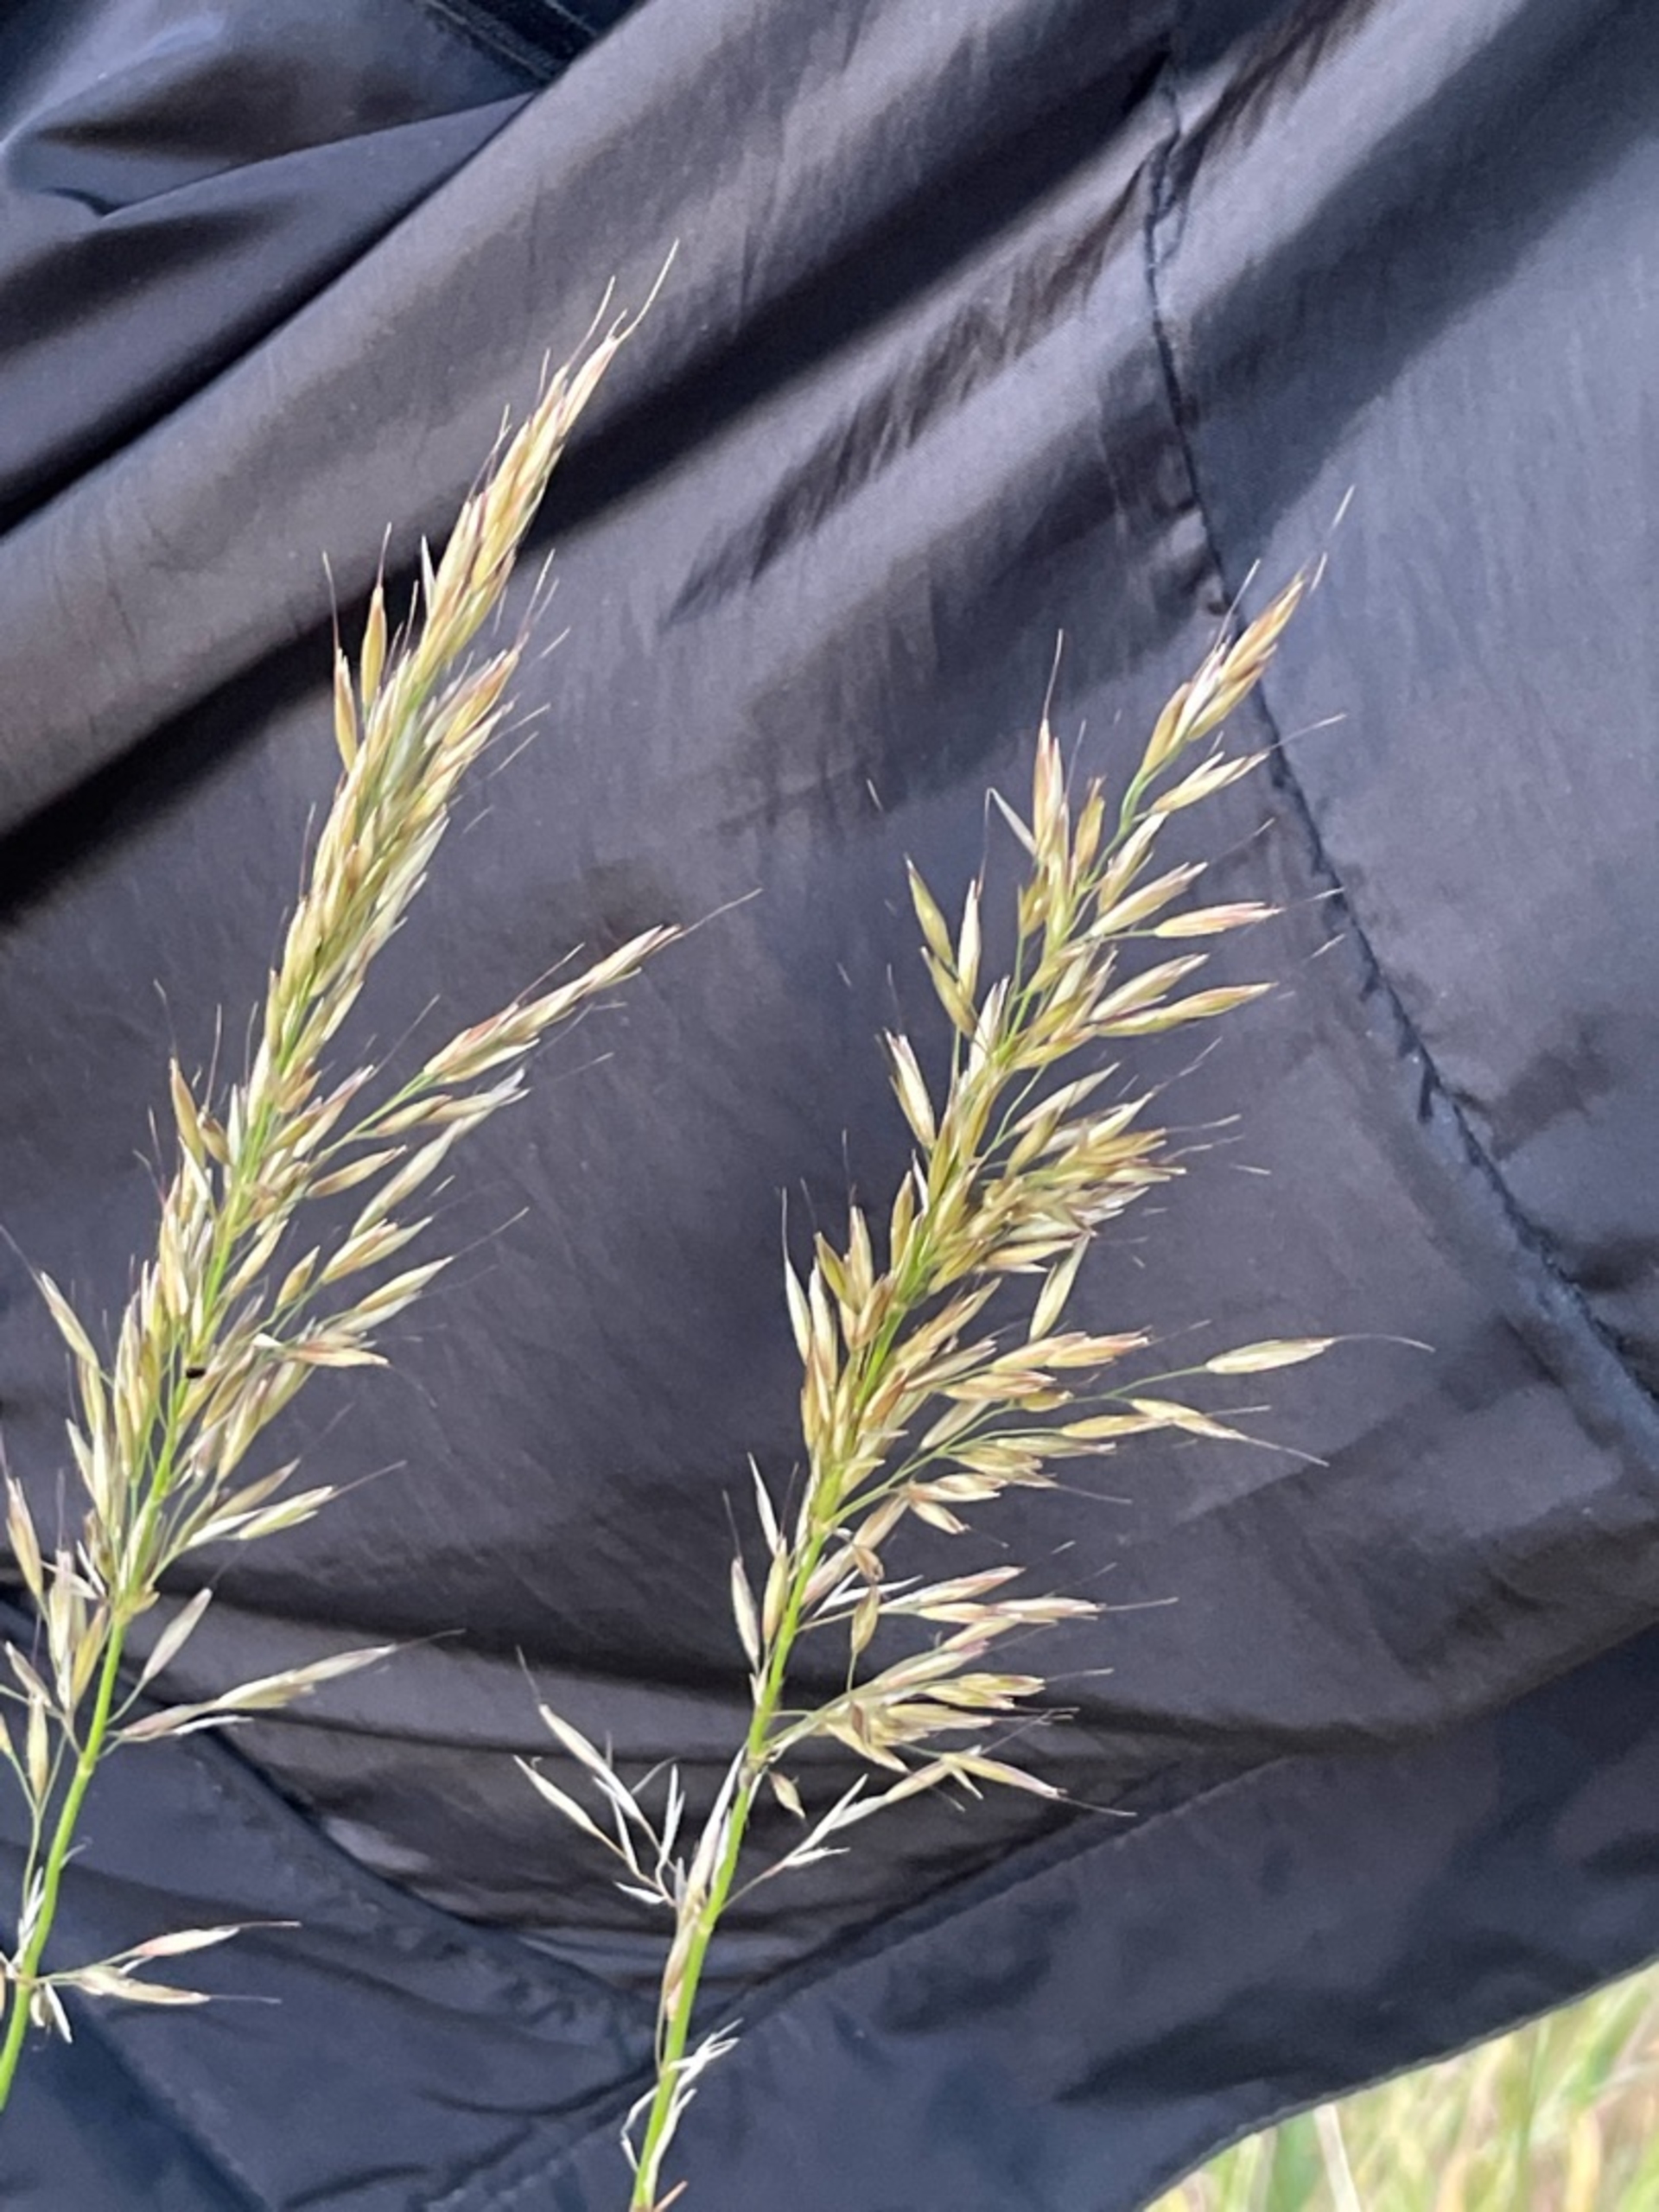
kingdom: Plantae
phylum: Tracheophyta
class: Liliopsida
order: Poales
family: Poaceae
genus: Arrhenatherum
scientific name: Arrhenatherum elatius
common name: Draphavre
